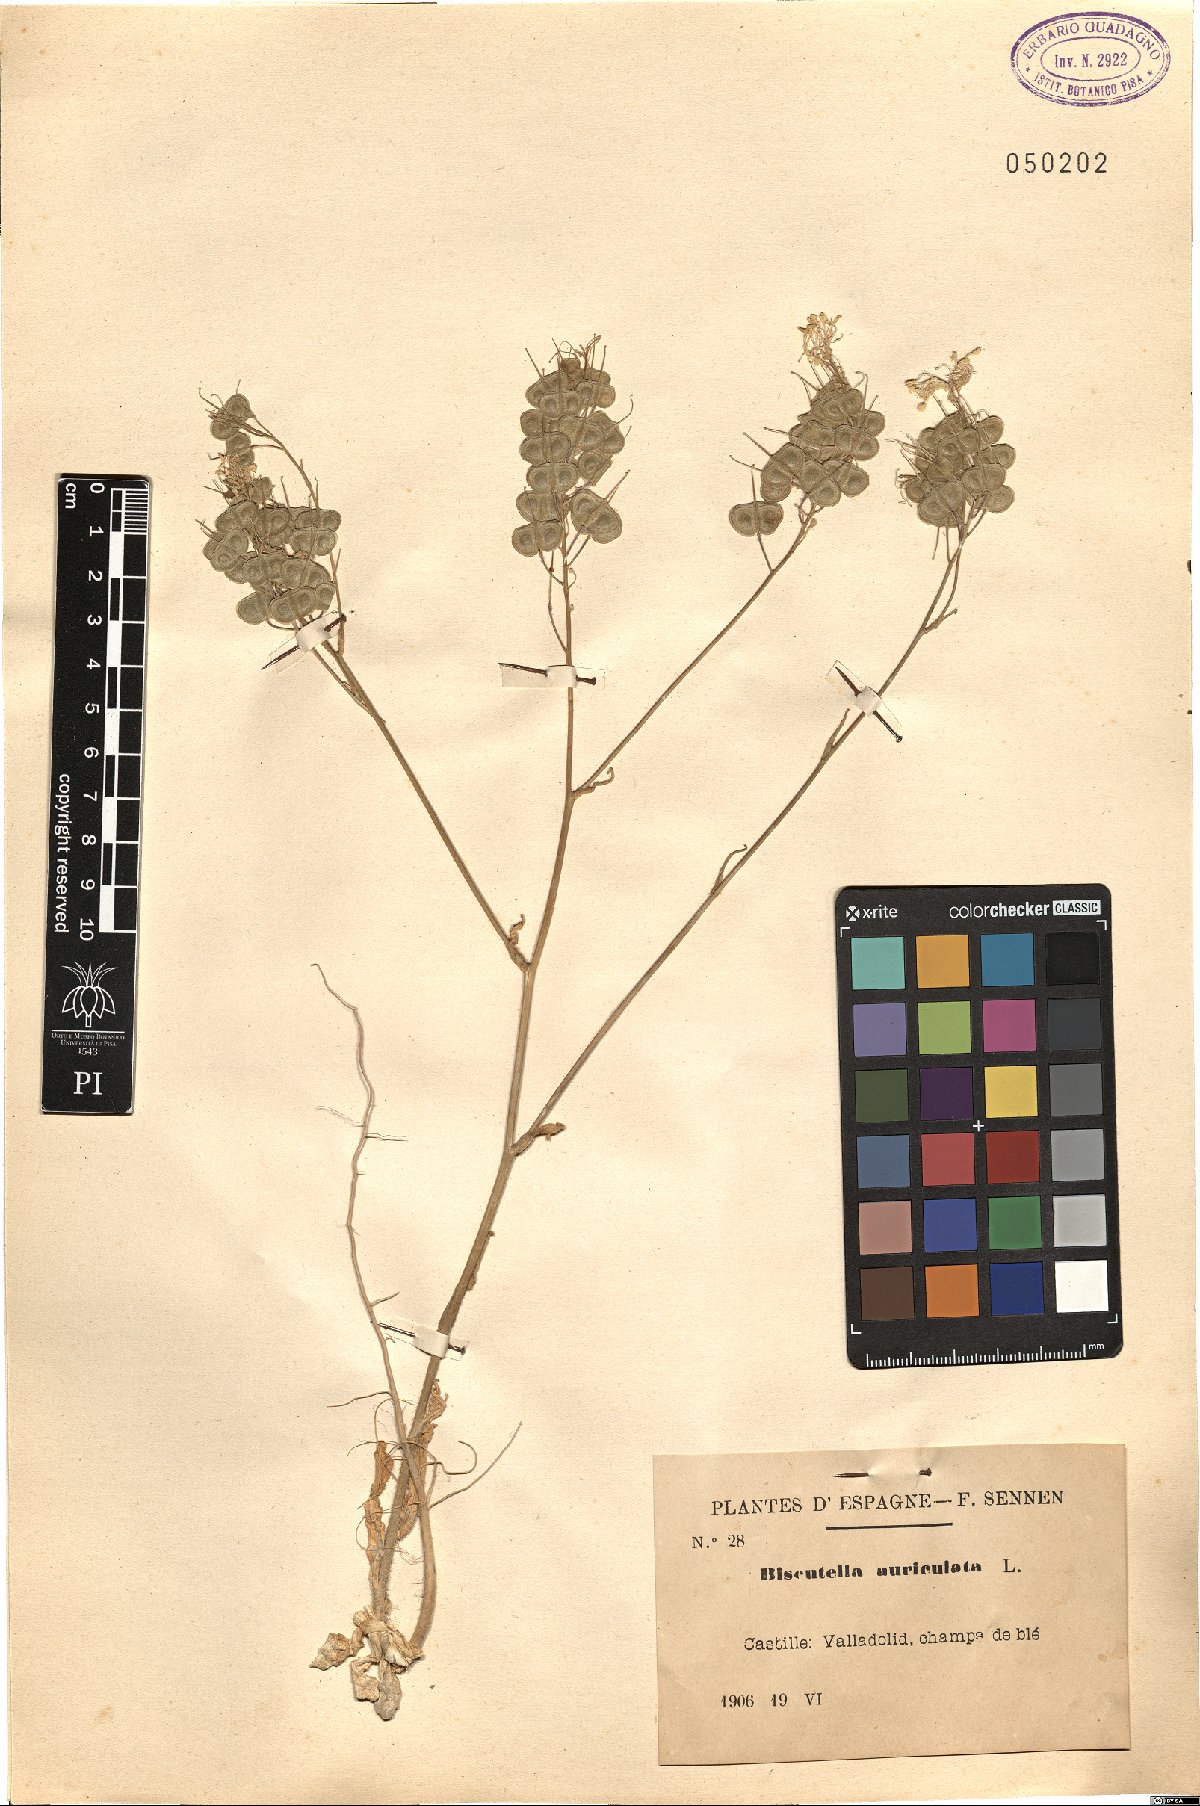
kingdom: Plantae
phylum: Tracheophyta
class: Magnoliopsida
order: Brassicales
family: Brassicaceae
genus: Biscutella
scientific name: Biscutella auriculata
